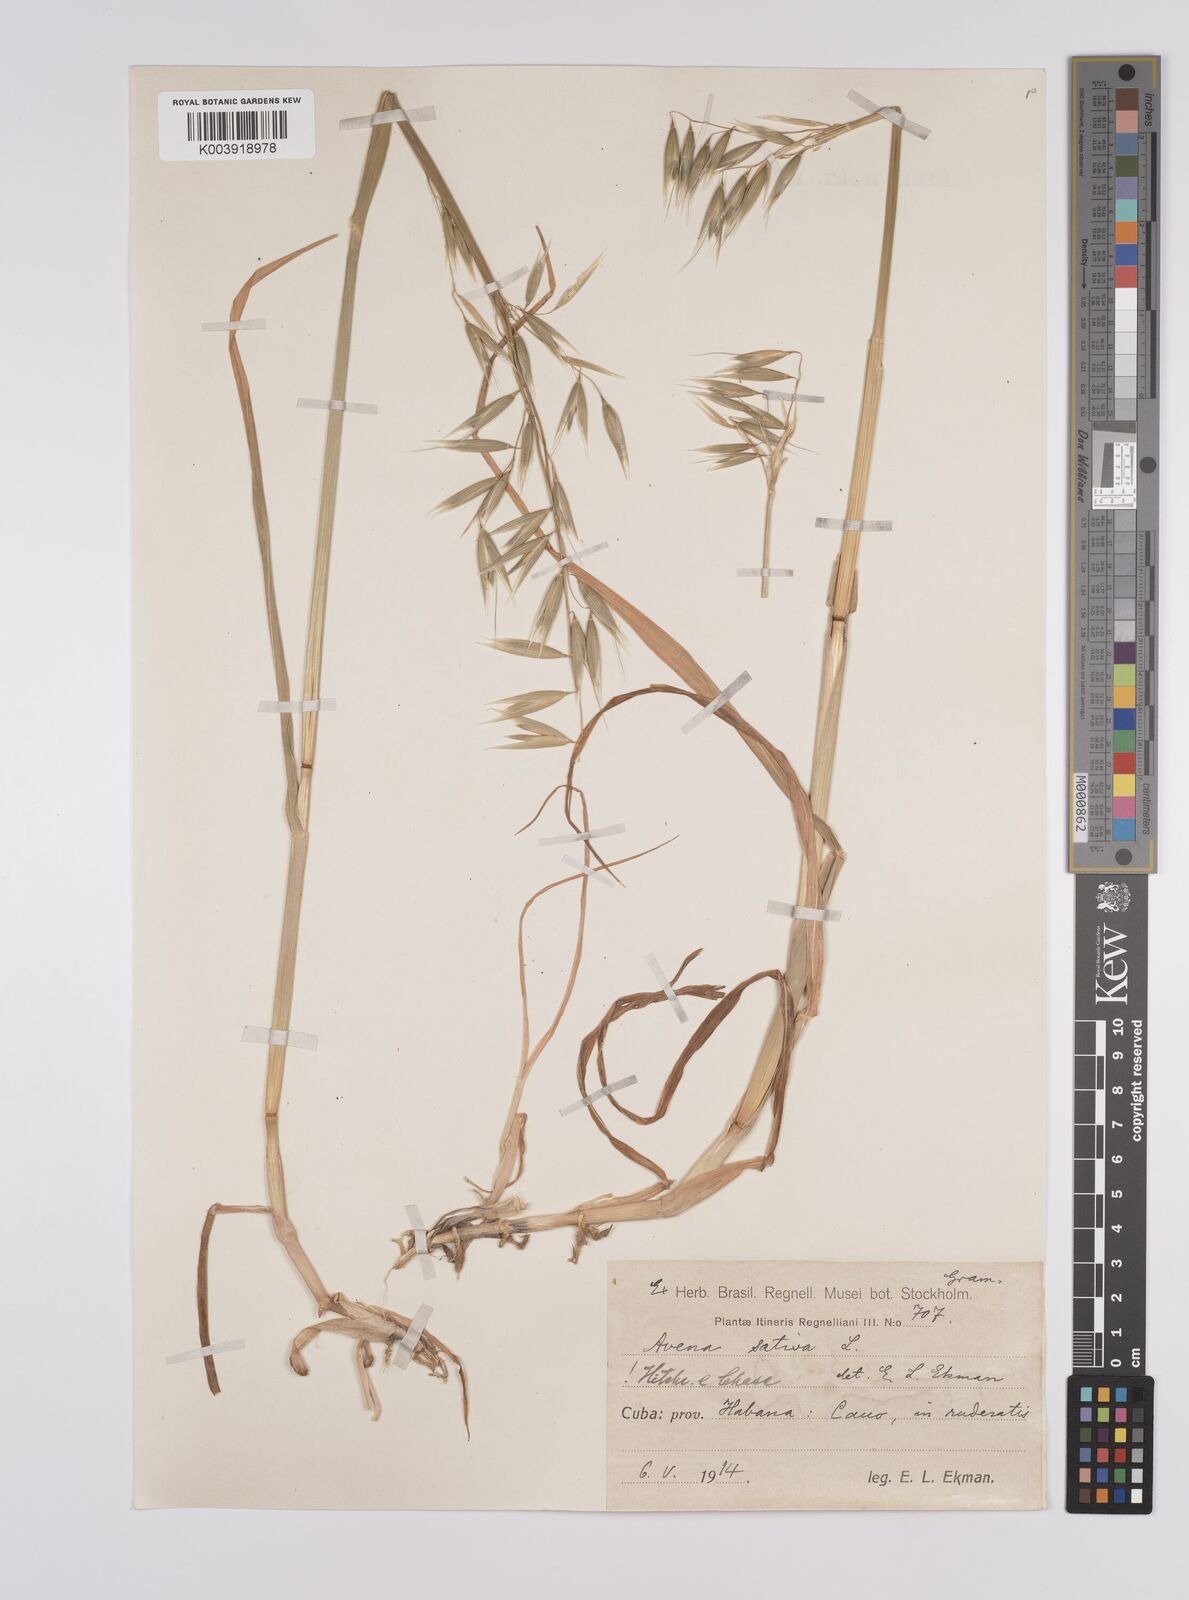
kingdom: Plantae
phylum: Tracheophyta
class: Liliopsida
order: Poales
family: Poaceae
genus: Avena
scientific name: Avena sativa
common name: Oat
